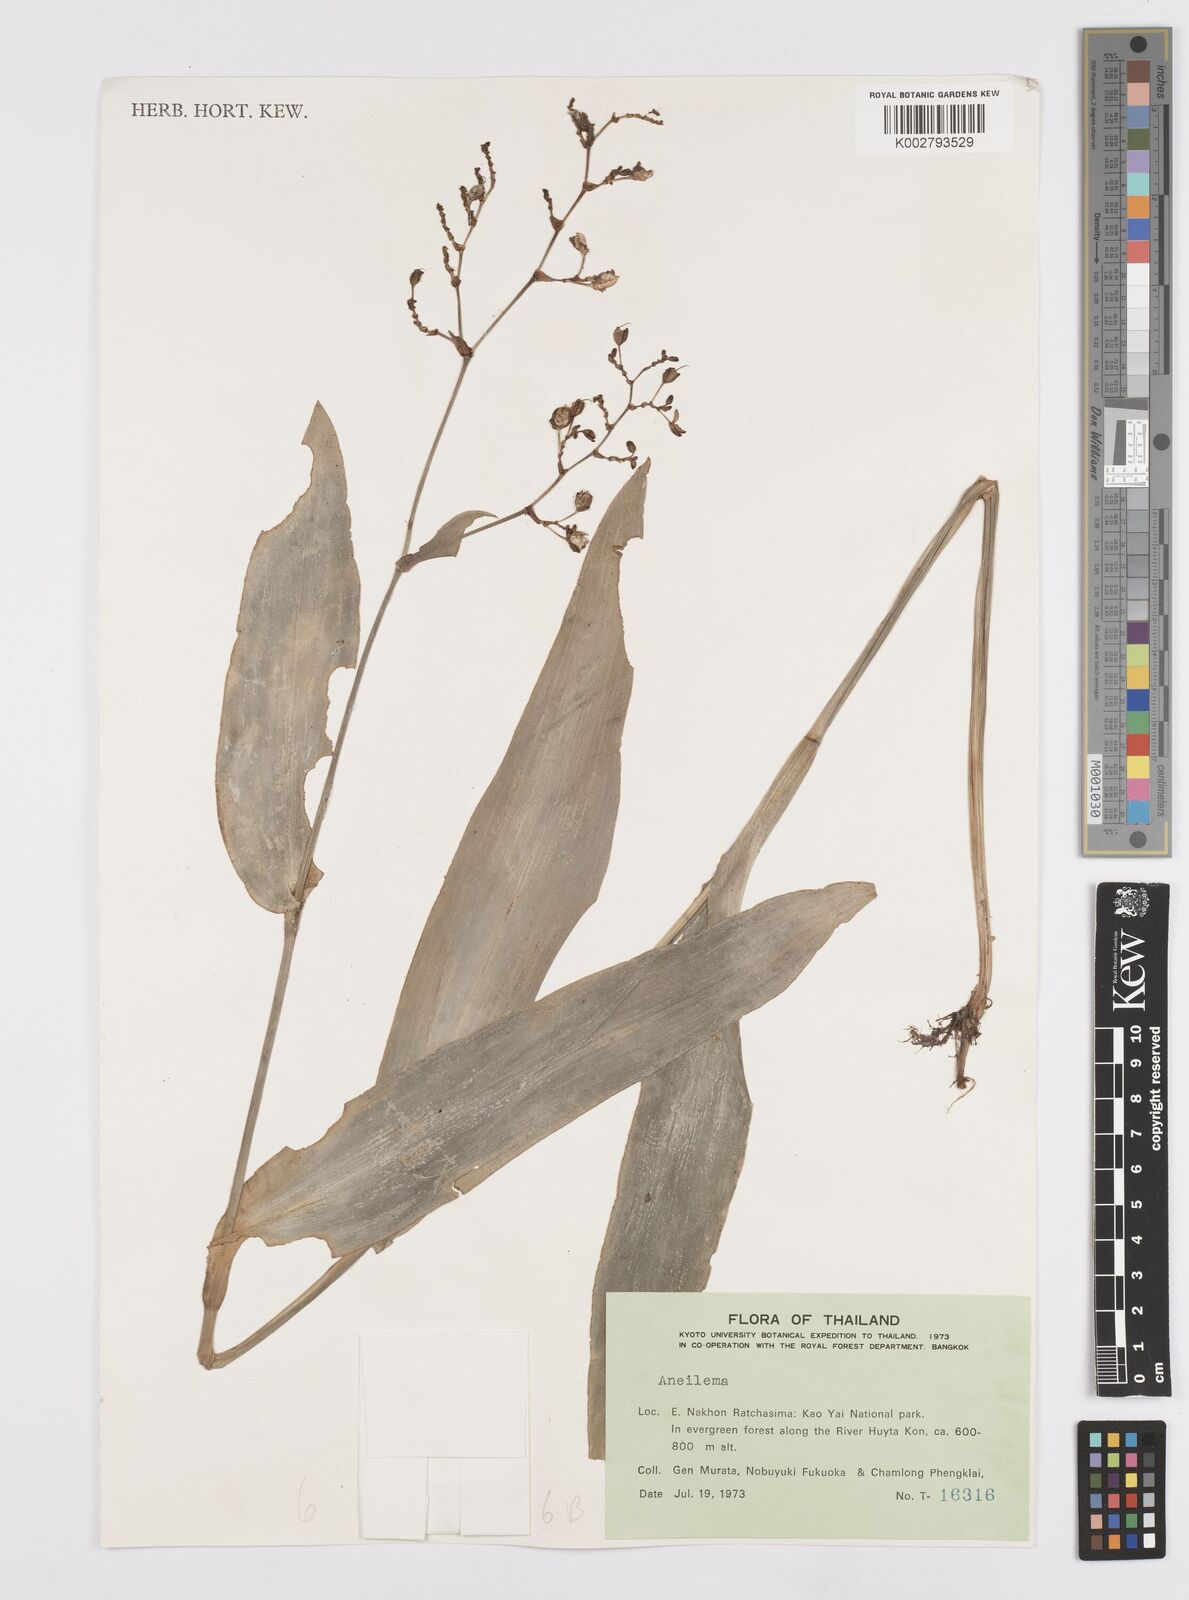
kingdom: Plantae
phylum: Tracheophyta
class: Liliopsida
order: Commelinales
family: Commelinaceae
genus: Murdannia
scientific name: Murdannia
